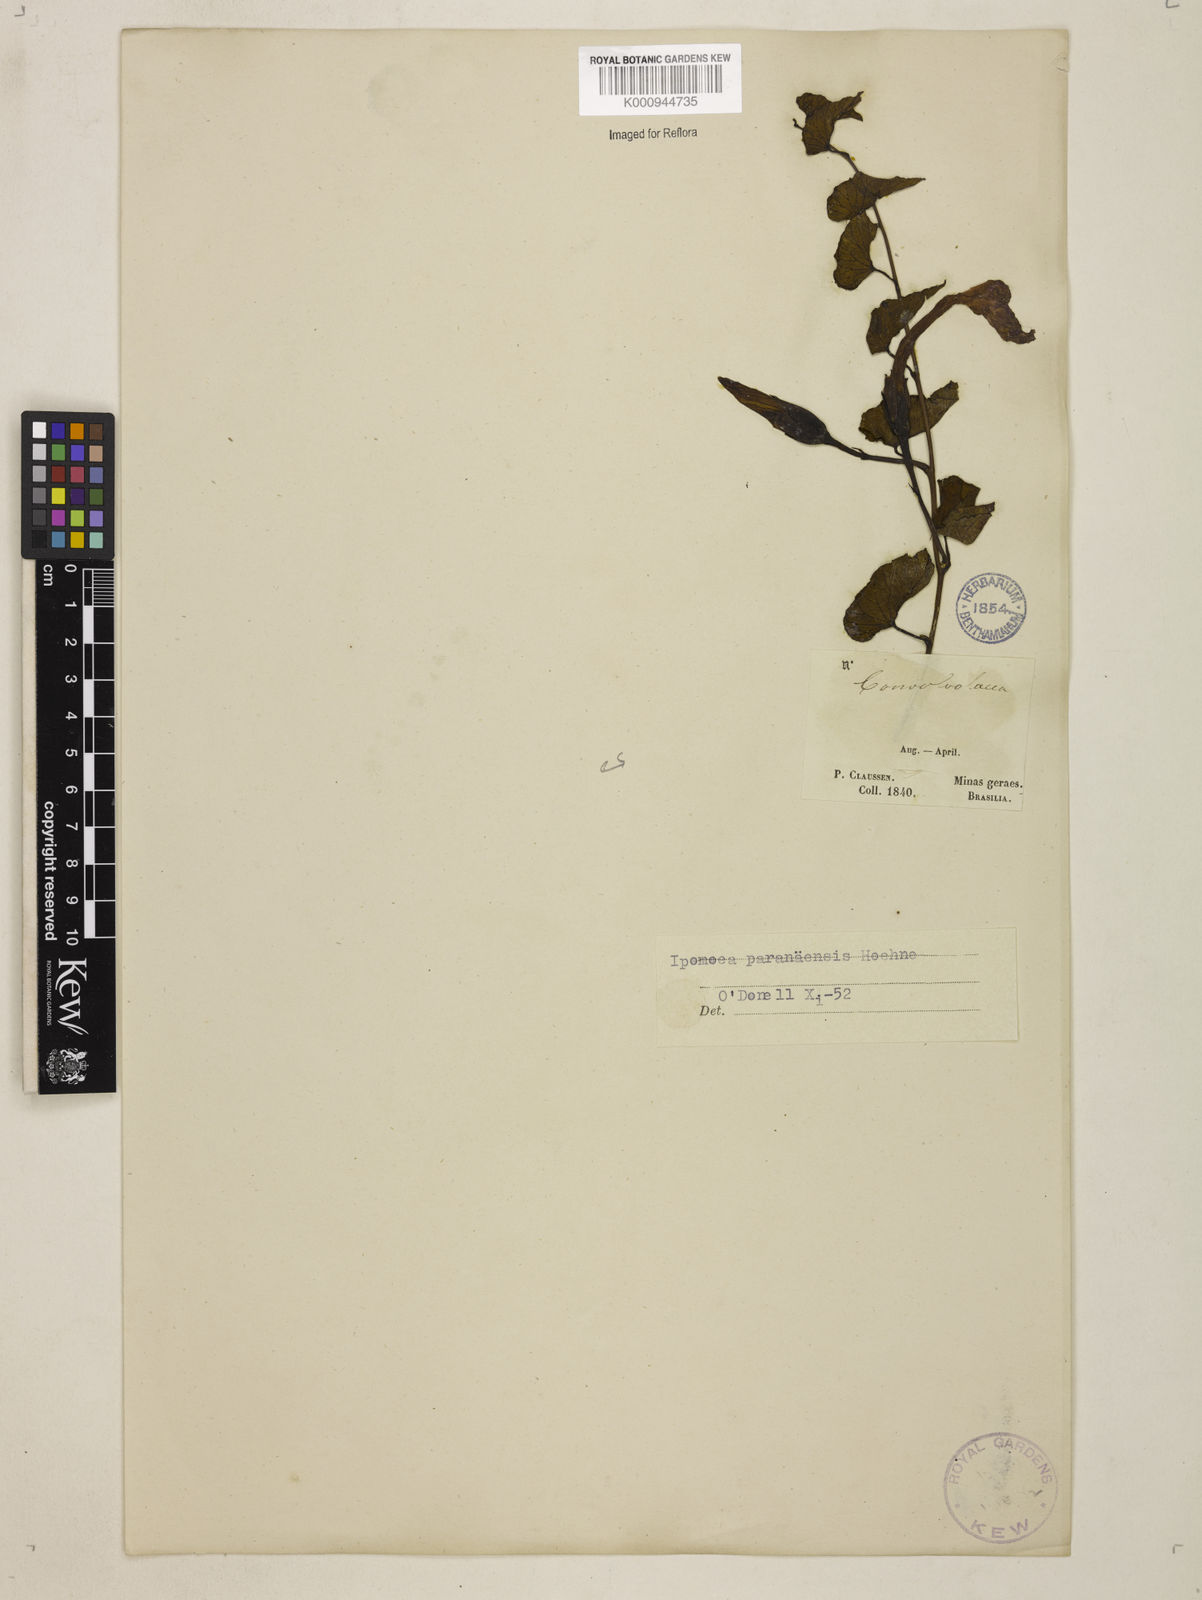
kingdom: Plantae
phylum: Tracheophyta
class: Magnoliopsida
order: Solanales
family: Convolvulaceae
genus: Ipomoea
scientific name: Ipomoea paranaensis
